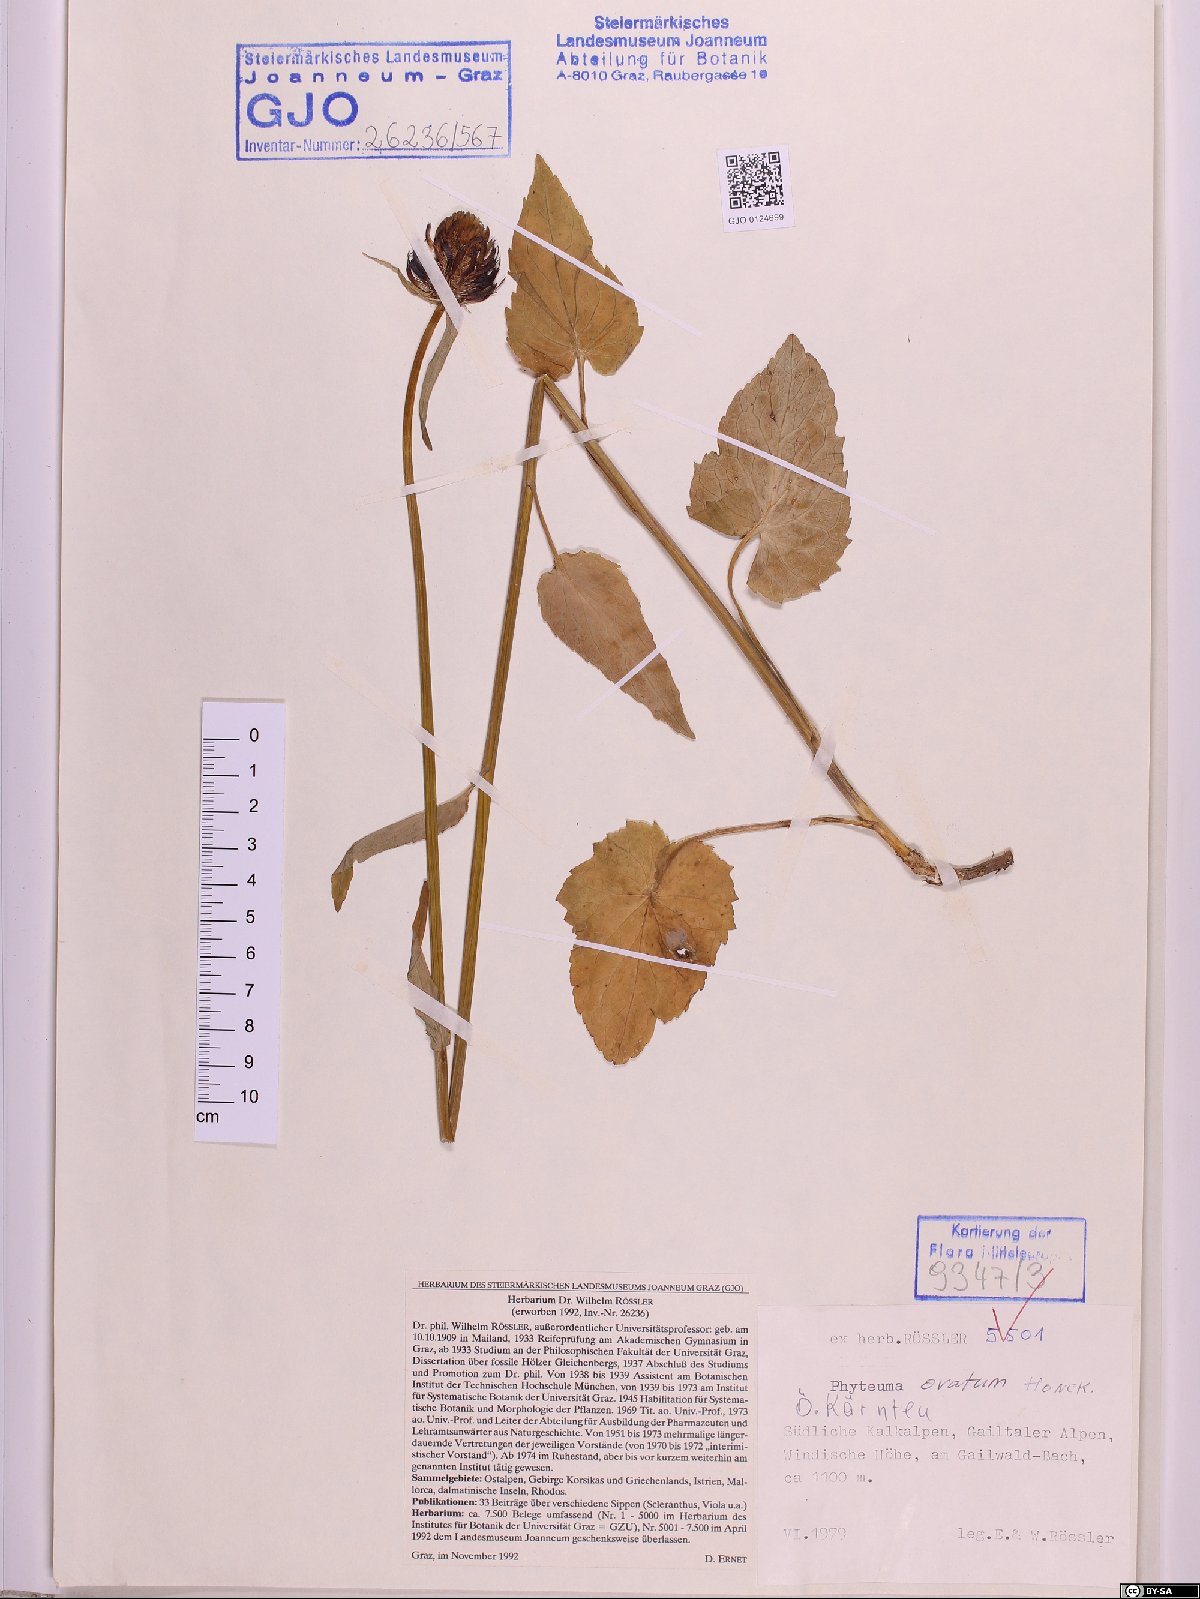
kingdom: Plantae
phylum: Tracheophyta
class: Magnoliopsida
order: Asterales
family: Campanulaceae
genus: Phyteuma
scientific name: Phyteuma ovatum
